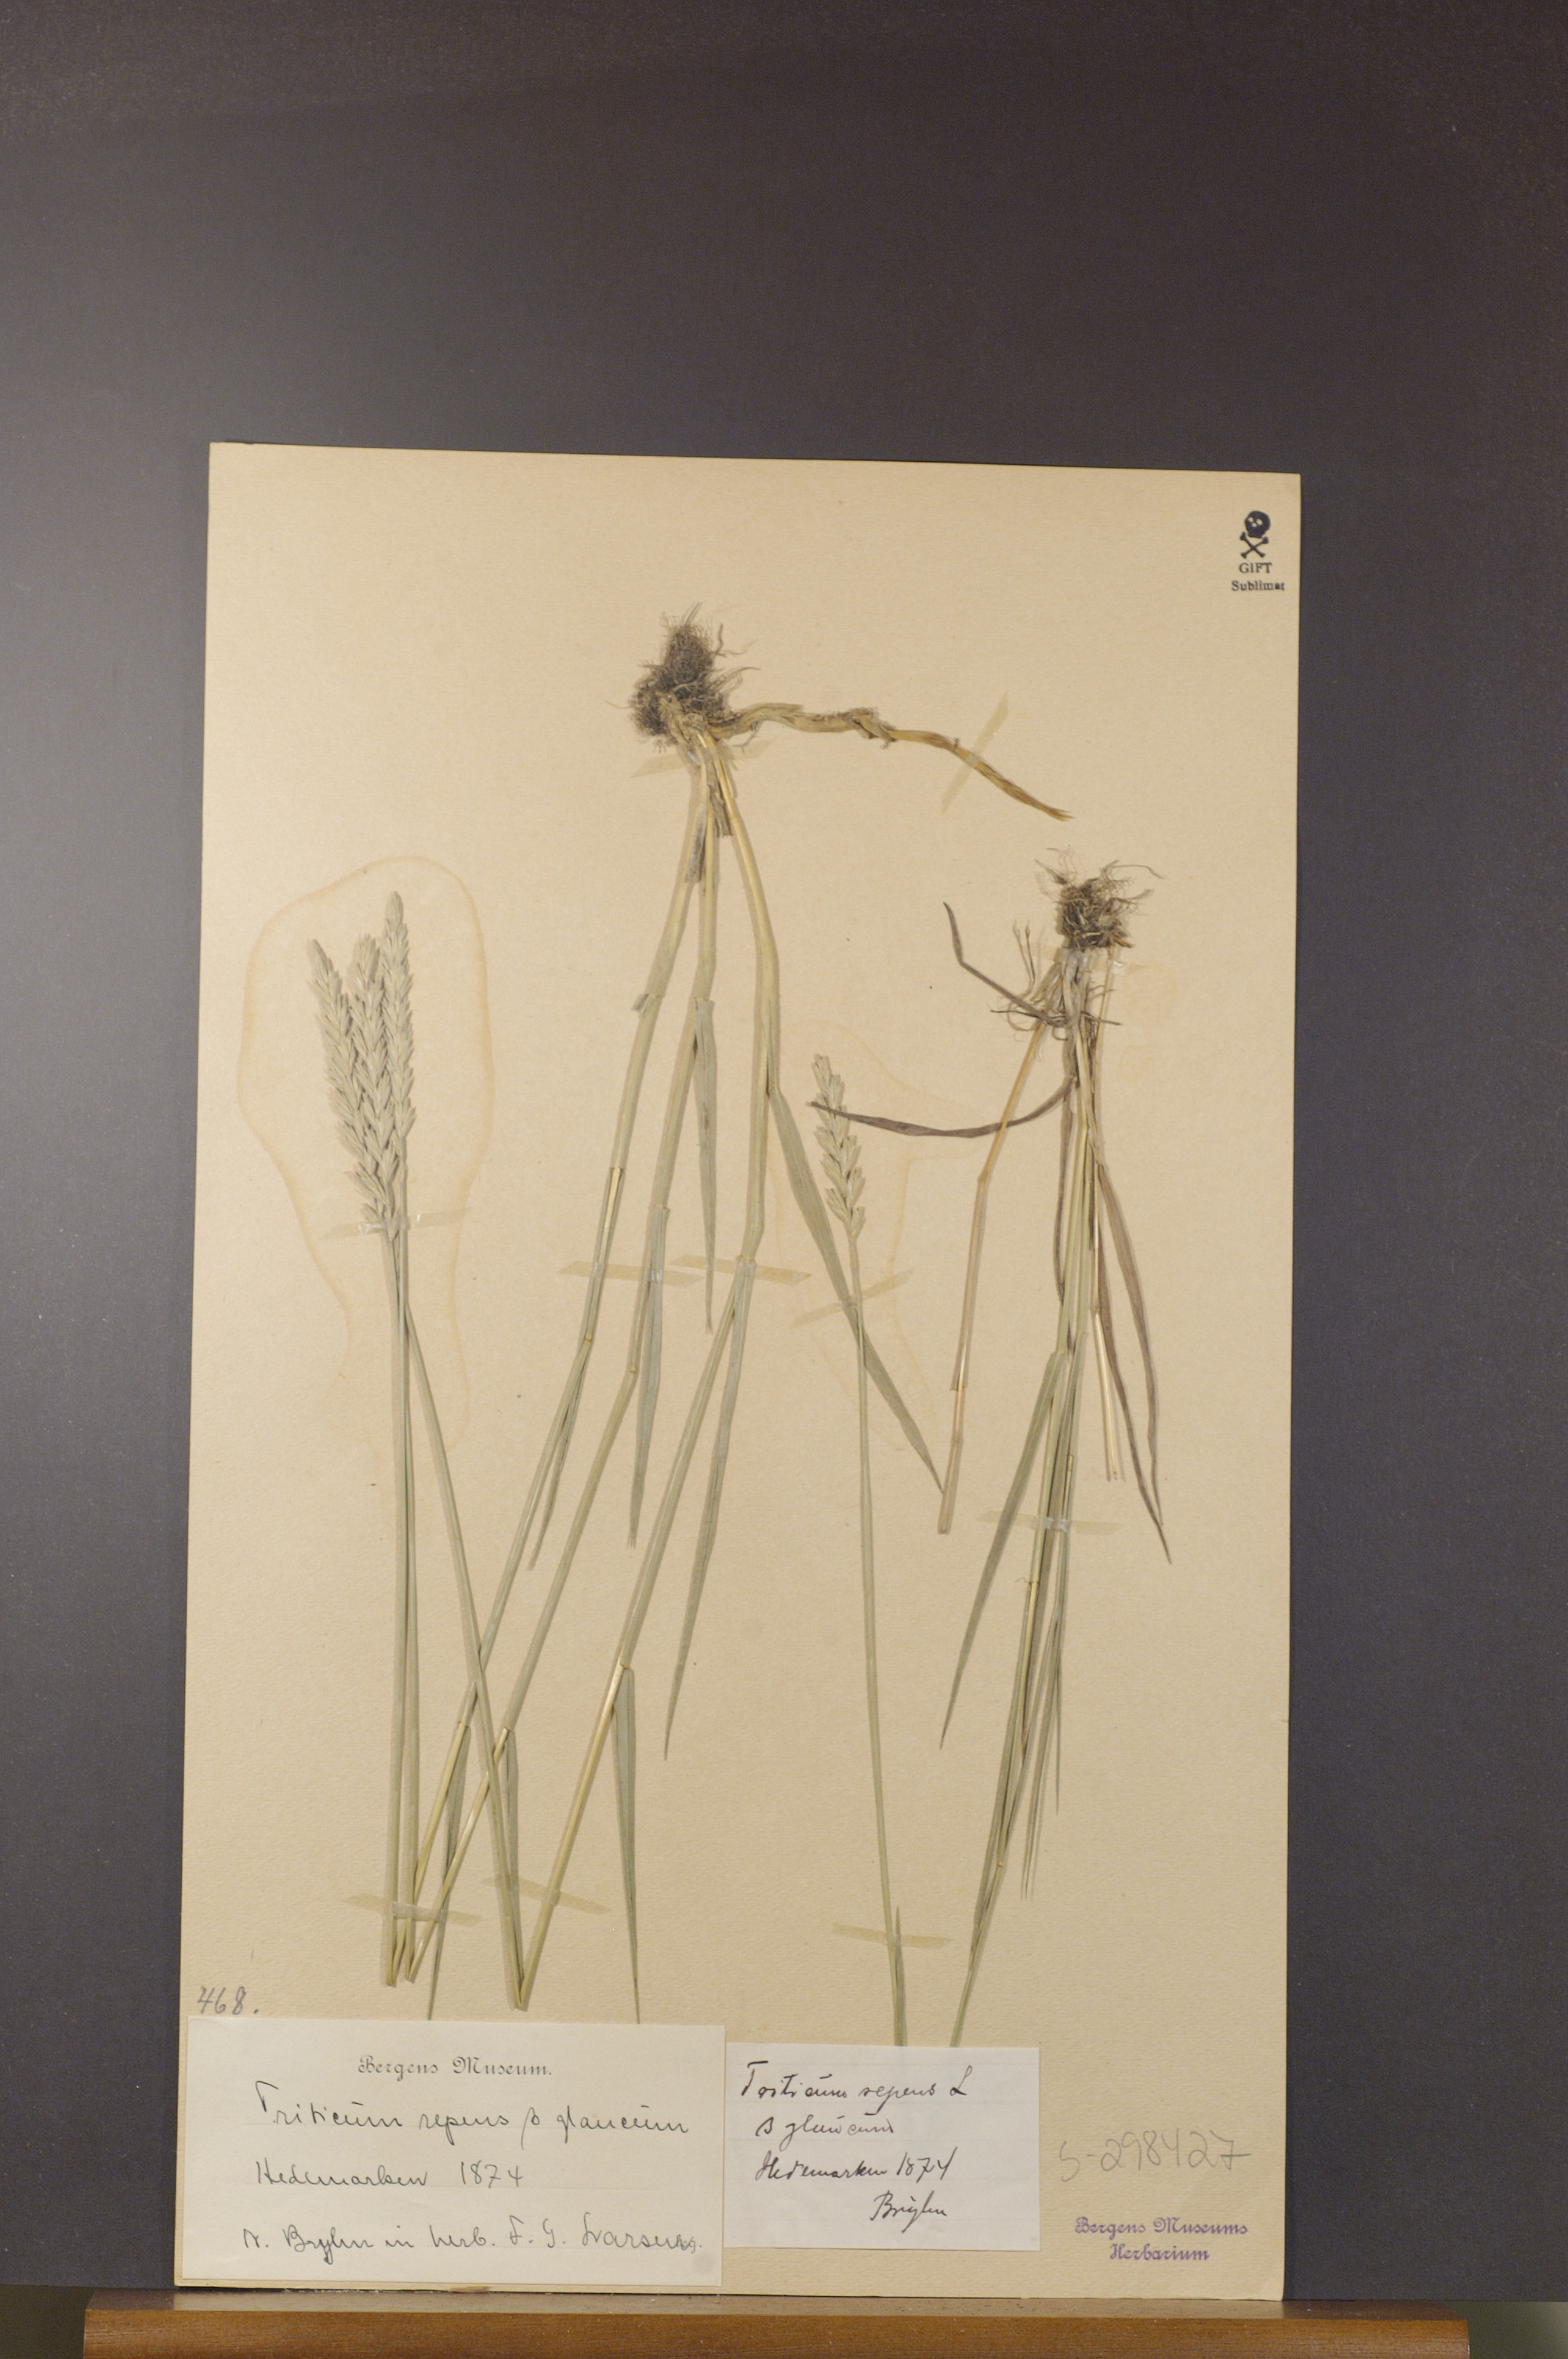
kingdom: Plantae
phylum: Tracheophyta
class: Liliopsida
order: Poales
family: Poaceae
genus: Elymus
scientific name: Elymus repens
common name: Quackgrass
